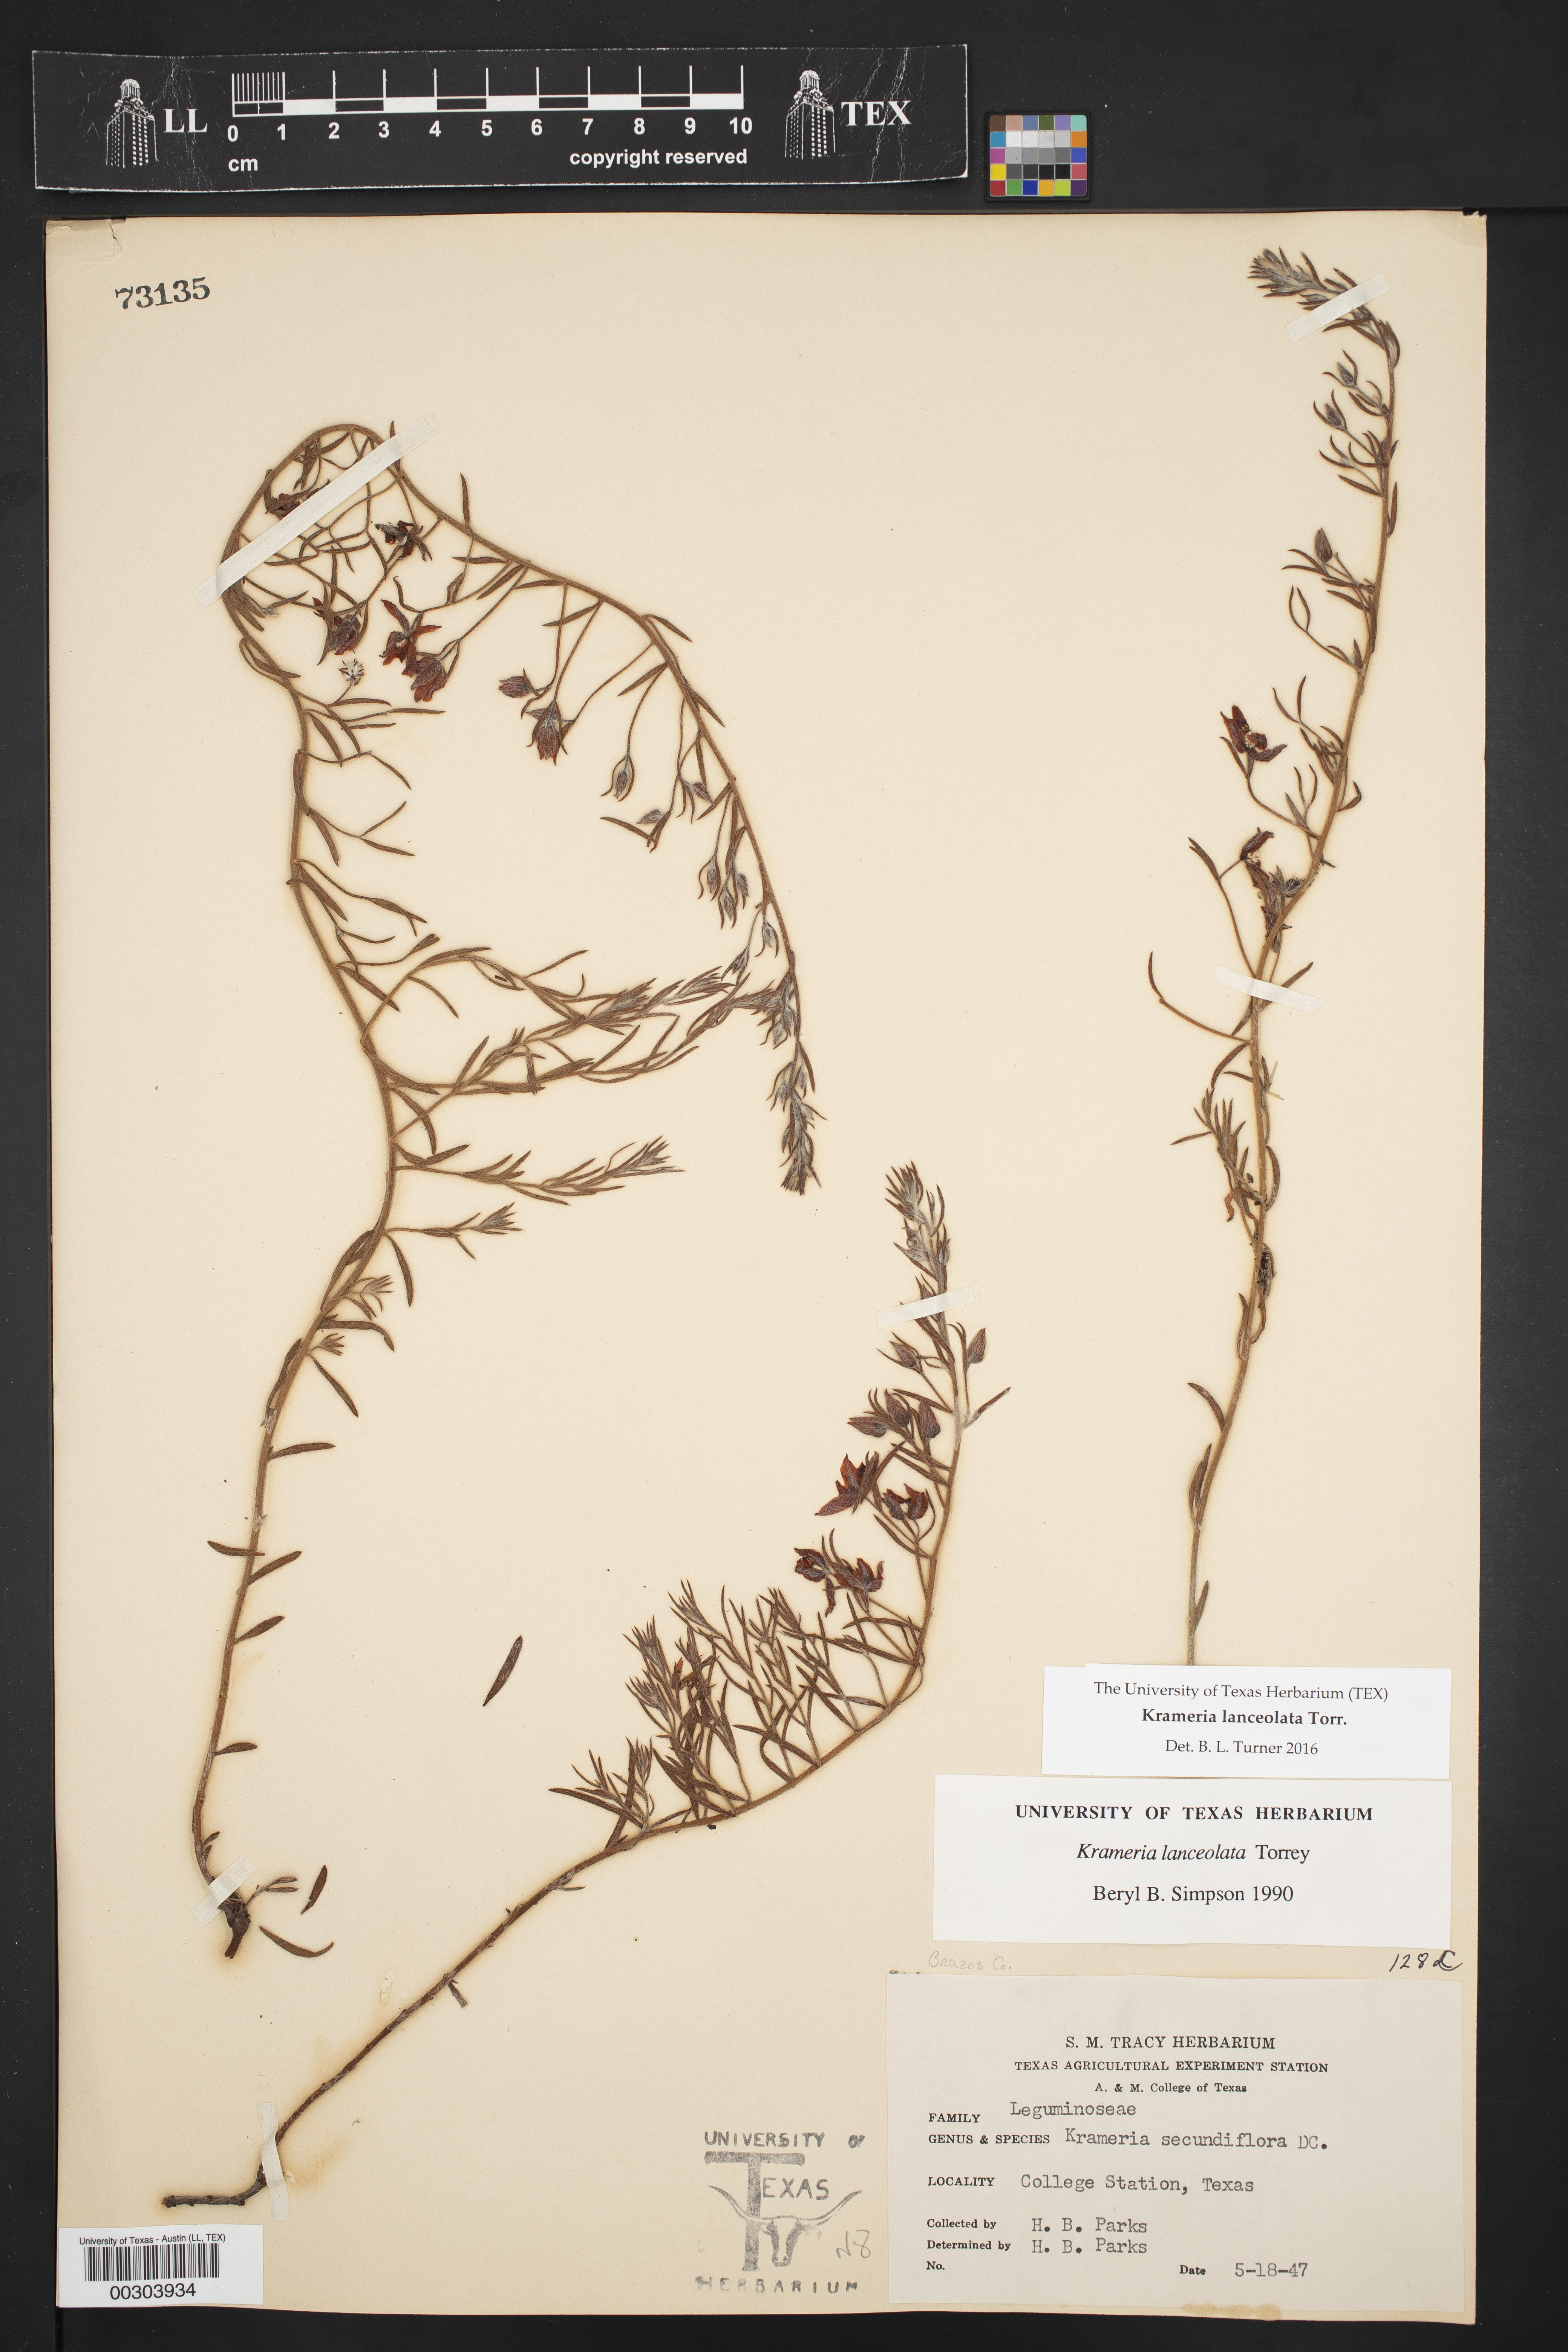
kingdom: Plantae
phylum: Tracheophyta
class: Magnoliopsida
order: Zygophyllales
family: Krameriaceae
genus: Krameria
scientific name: Krameria lanceolata
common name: Ratany
